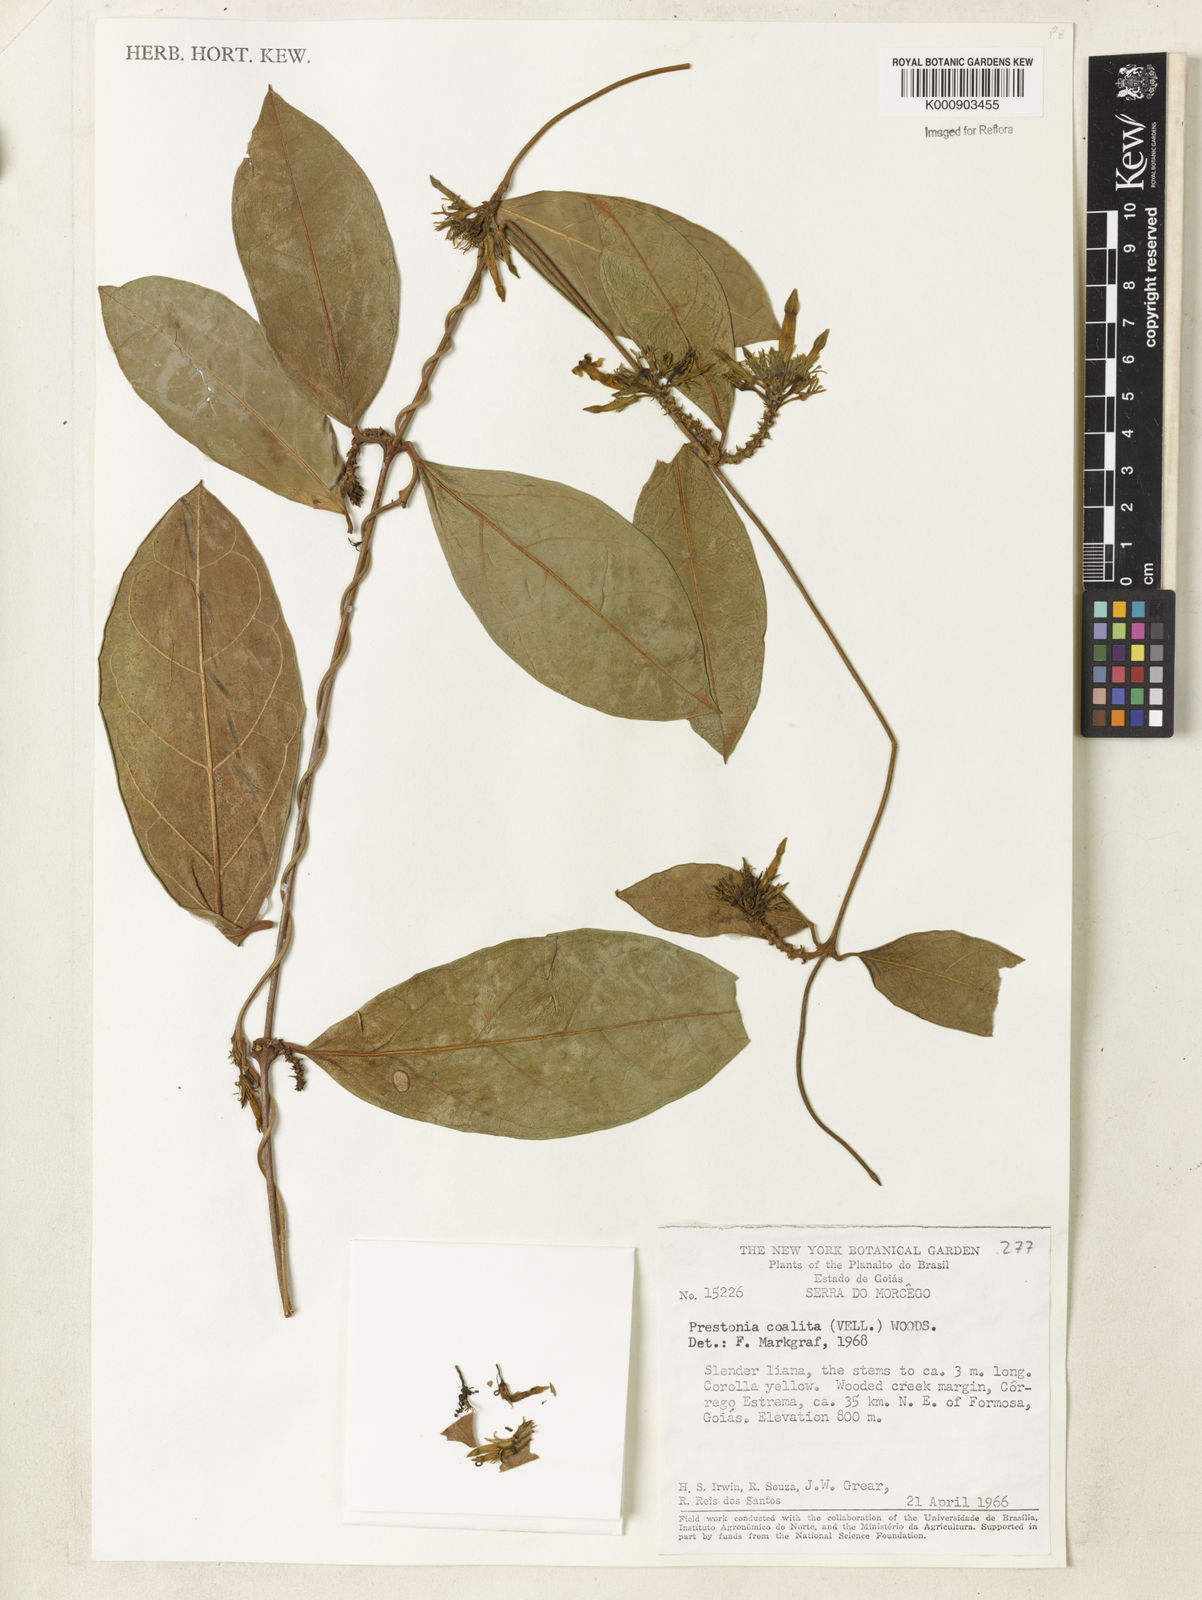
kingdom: Plantae
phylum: Tracheophyta
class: Magnoliopsida
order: Gentianales
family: Apocynaceae
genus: Prestonia
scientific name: Prestonia coalita
